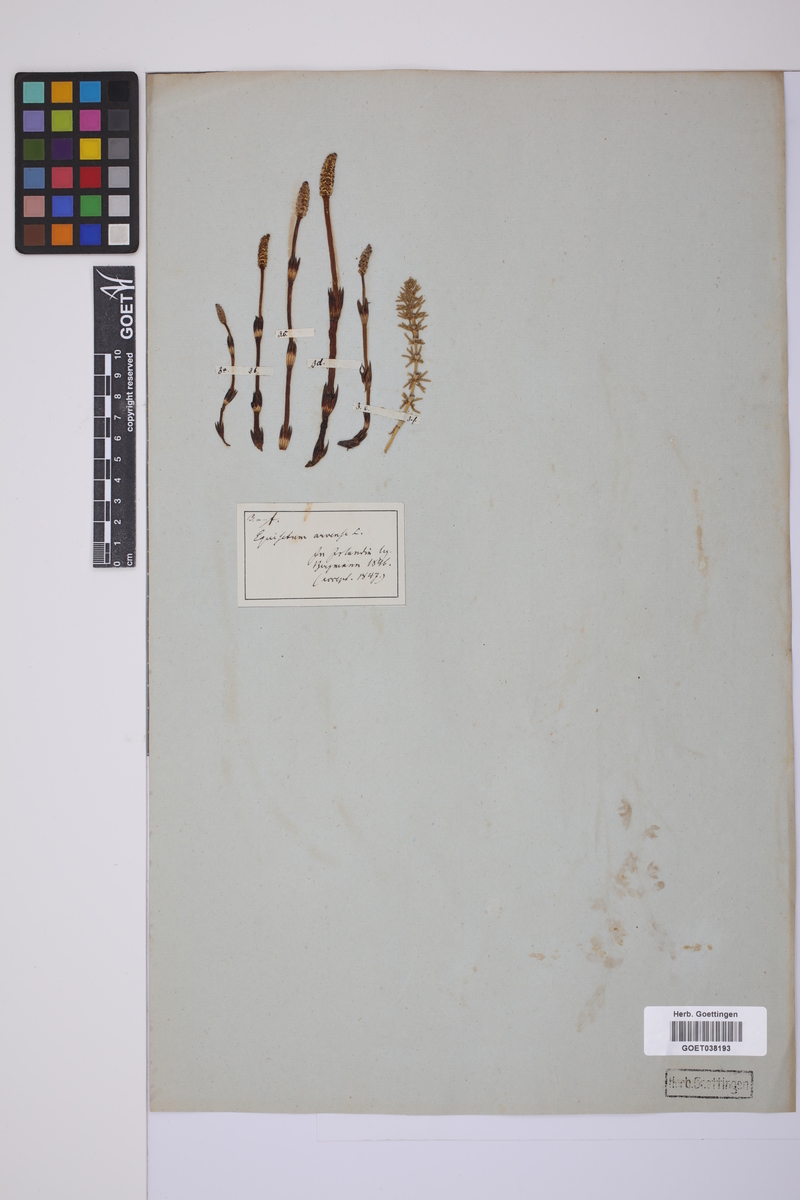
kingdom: Plantae
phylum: Tracheophyta
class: Polypodiopsida
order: Equisetales
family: Equisetaceae
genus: Equisetum
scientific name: Equisetum arvense
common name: Field horsetail
